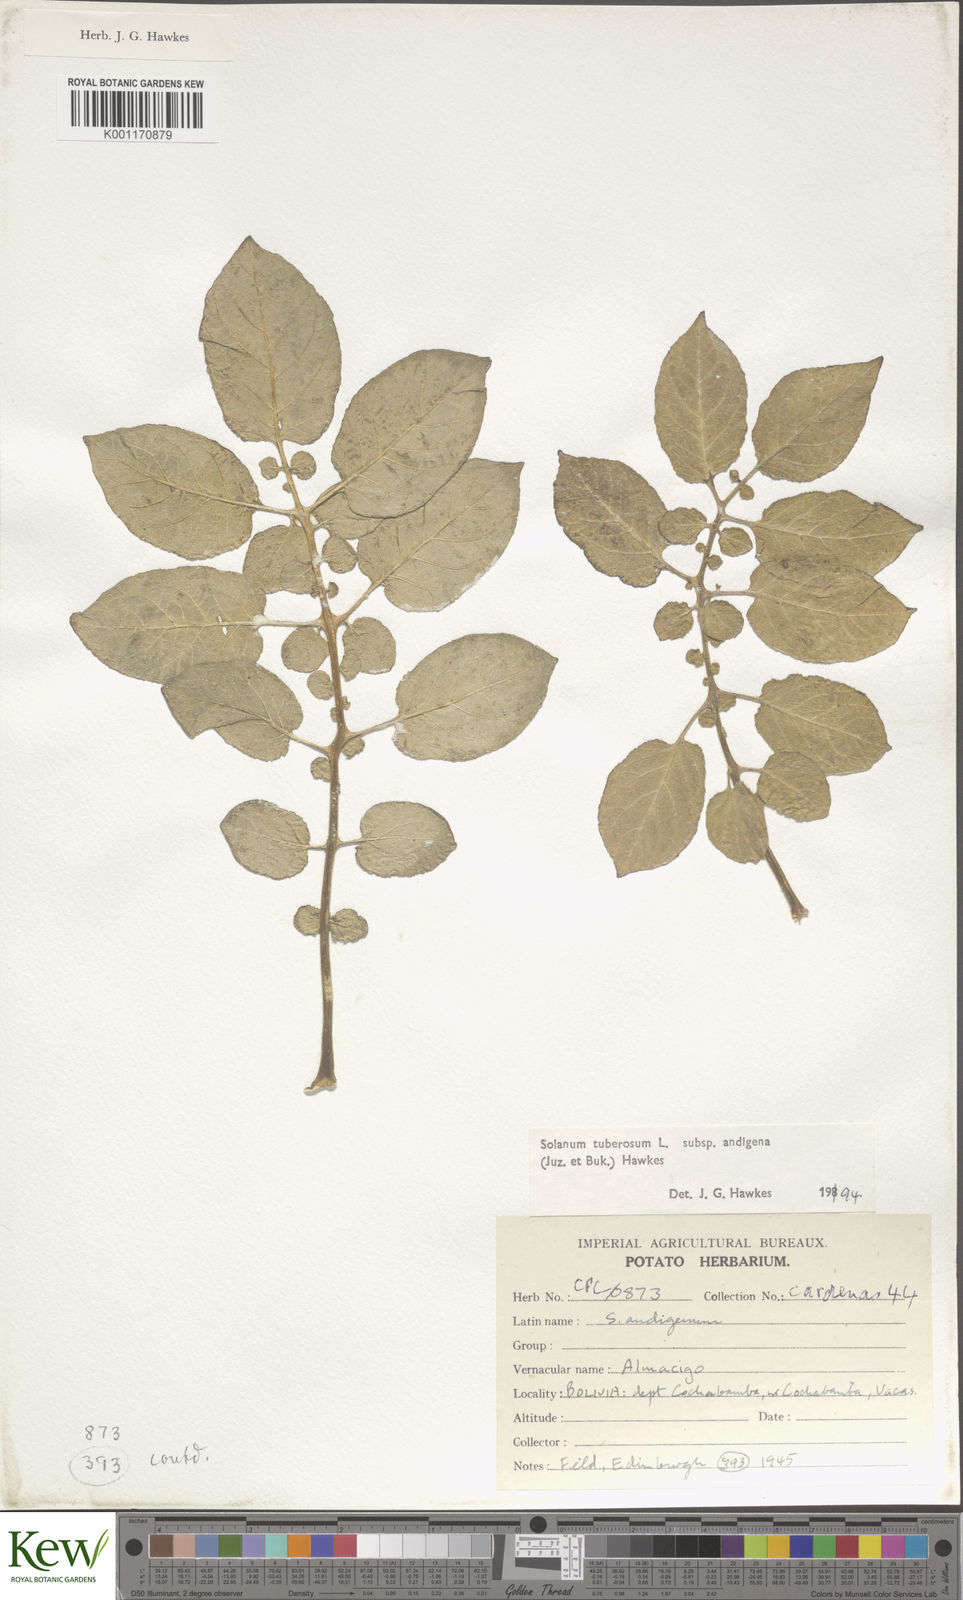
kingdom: Plantae
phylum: Tracheophyta
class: Magnoliopsida
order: Solanales
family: Solanaceae
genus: Solanum
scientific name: Solanum tuberosum
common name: Potato
